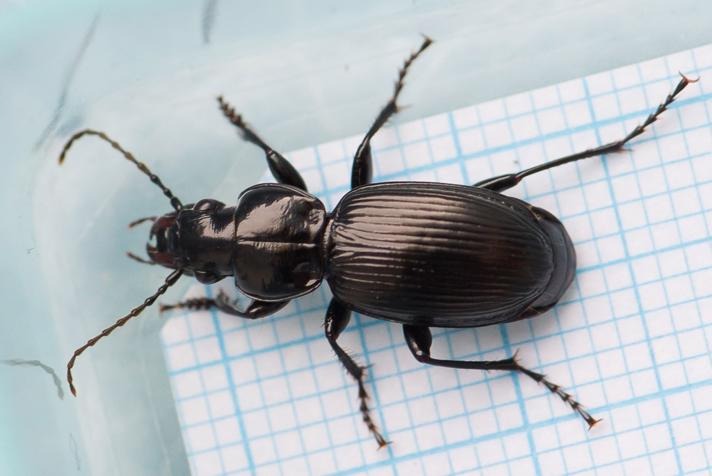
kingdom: Animalia
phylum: Arthropoda
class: Insecta
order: Coleoptera
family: Carabidae
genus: Pterostichus
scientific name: Pterostichus madidus
